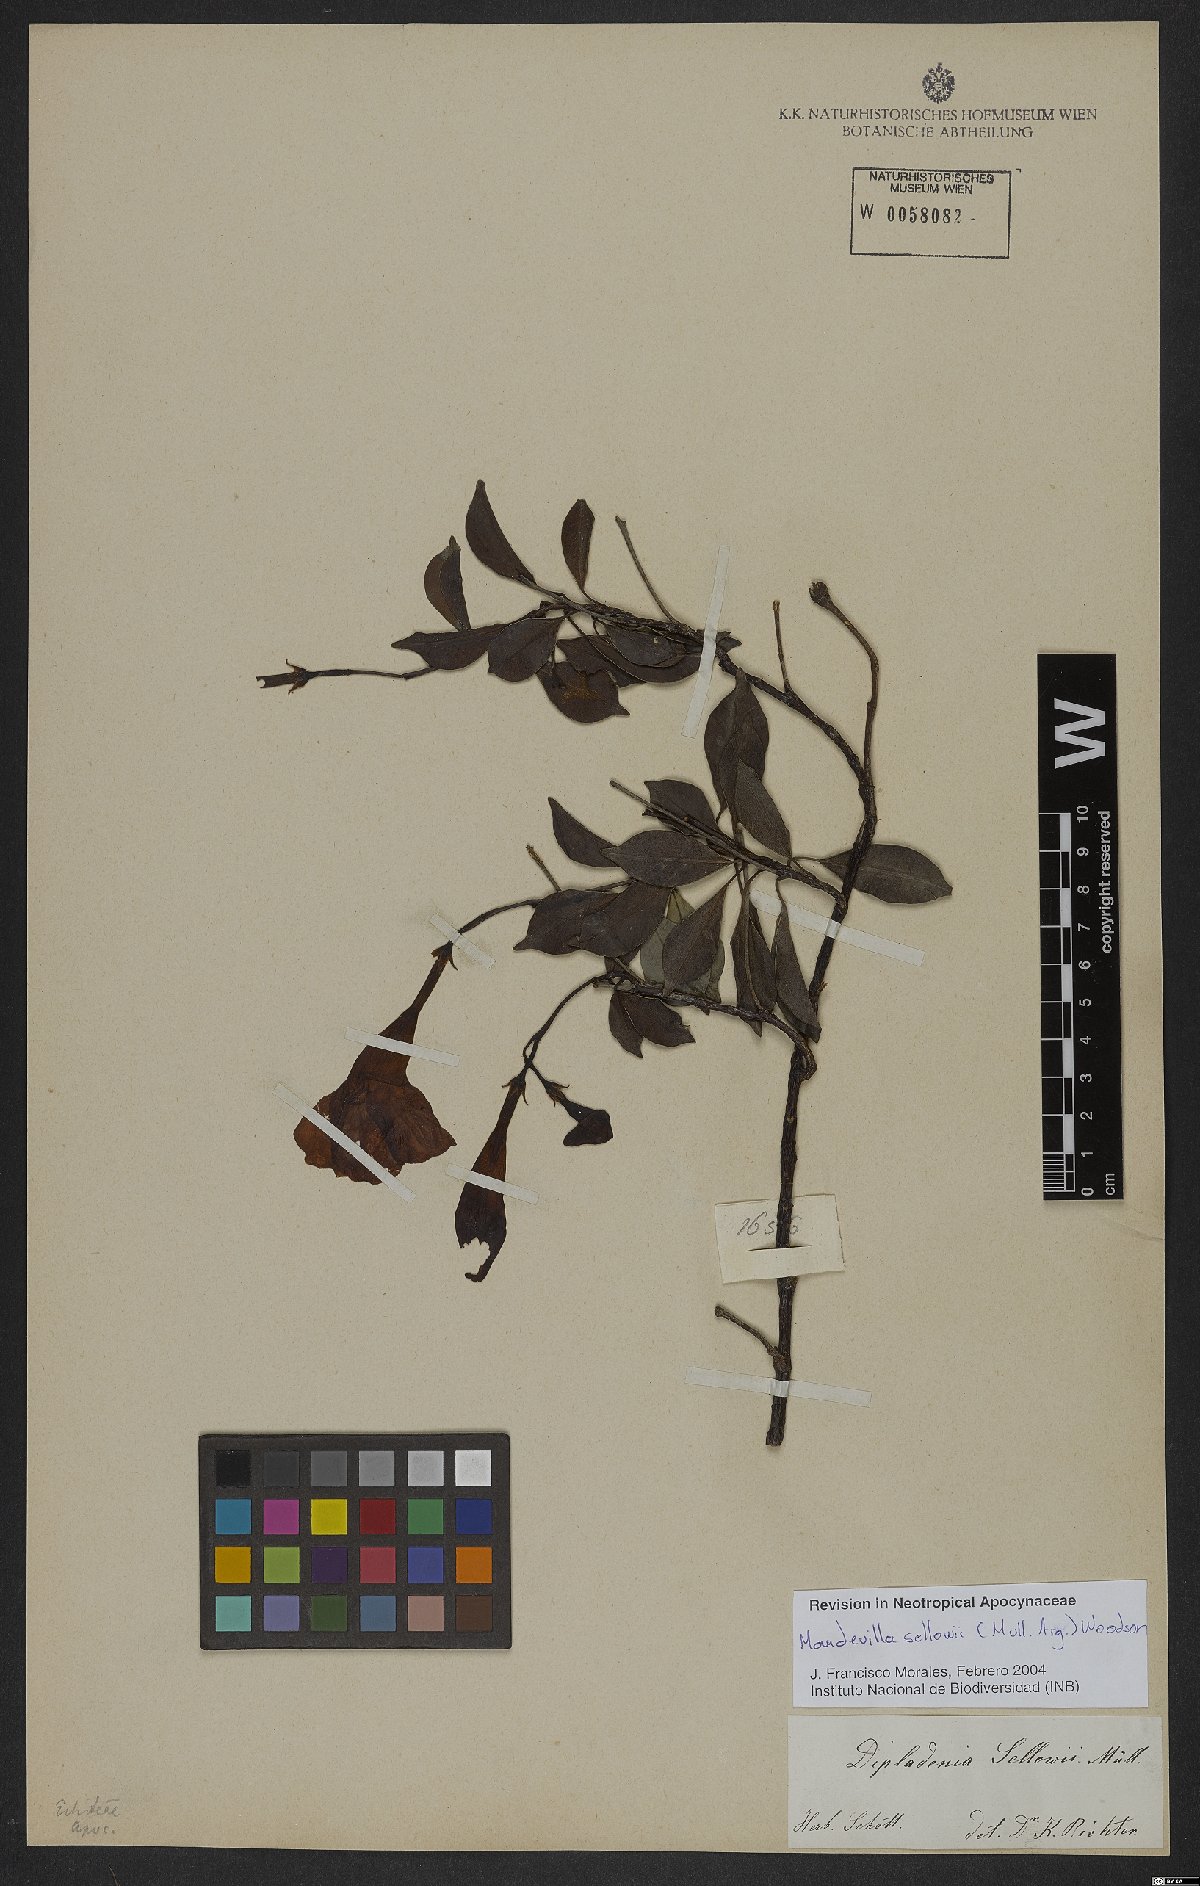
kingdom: Plantae
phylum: Tracheophyta
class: Magnoliopsida
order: Gentianales
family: Apocynaceae
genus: Mandevilla
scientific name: Mandevilla sellowii
